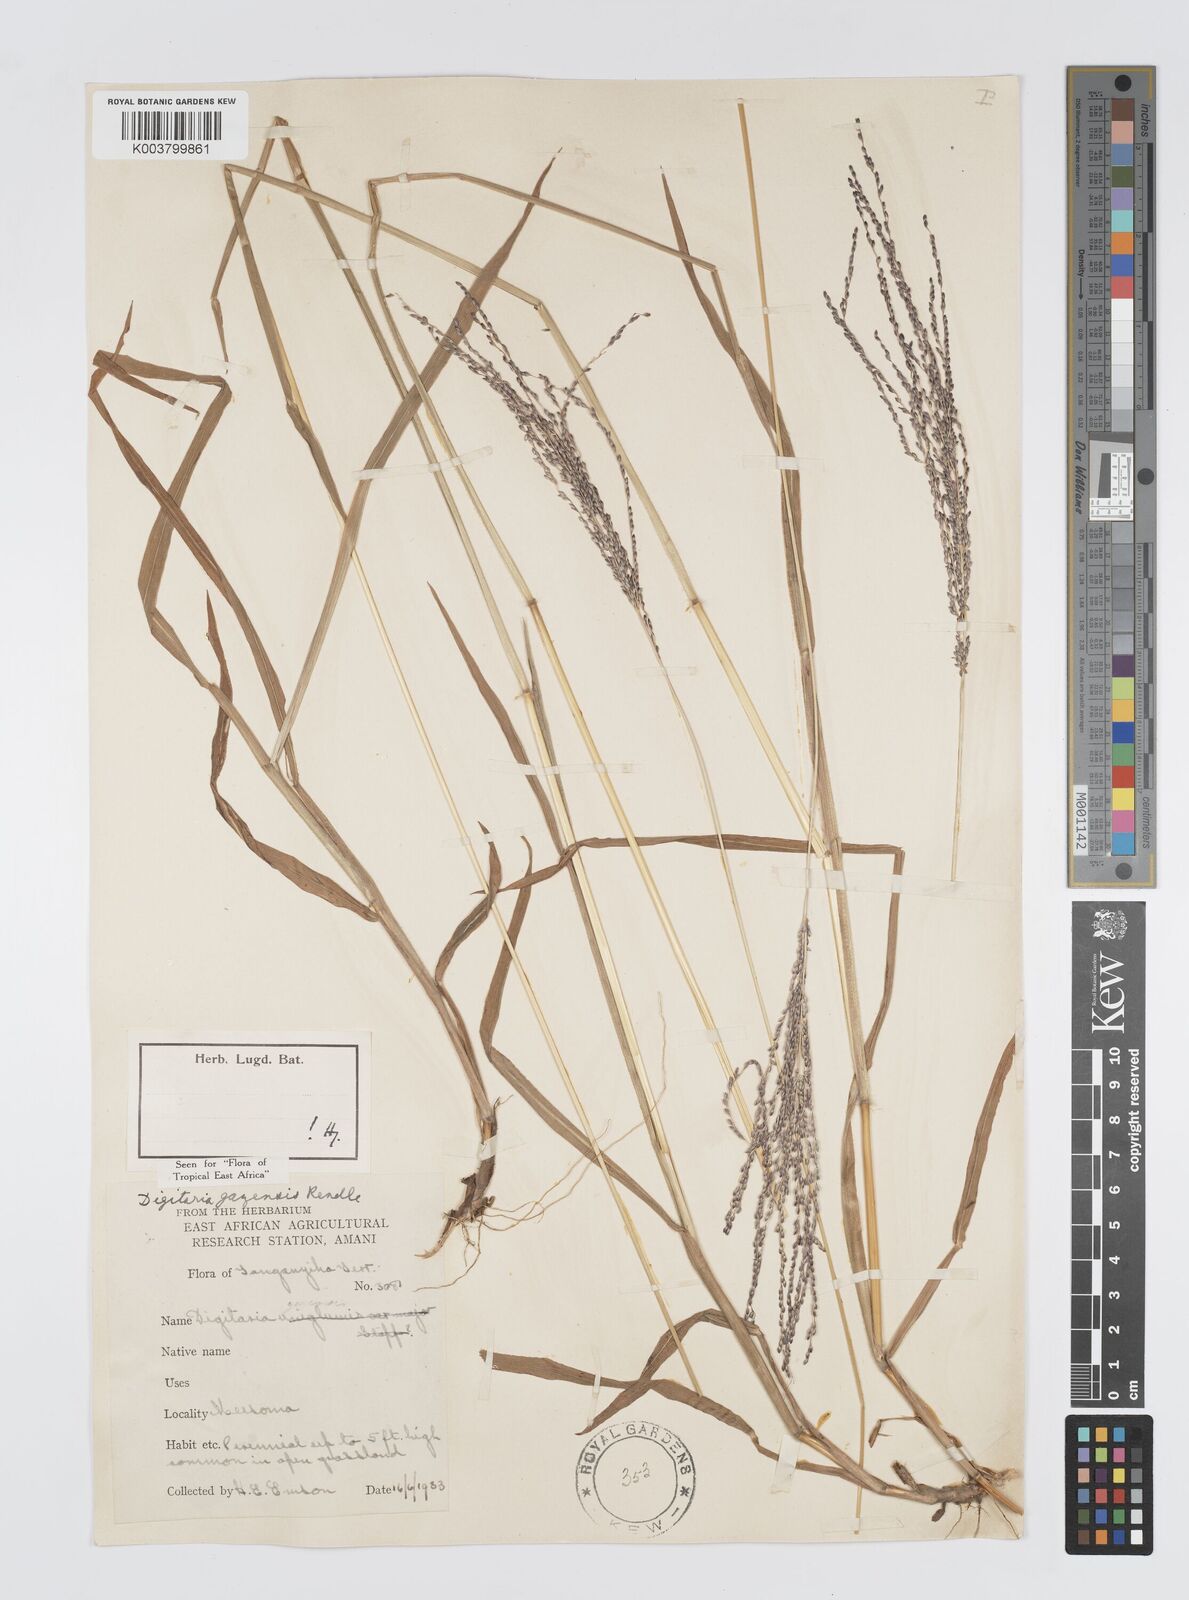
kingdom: Plantae
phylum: Tracheophyta
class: Liliopsida
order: Poales
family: Poaceae
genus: Digitaria
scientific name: Digitaria gazensis
